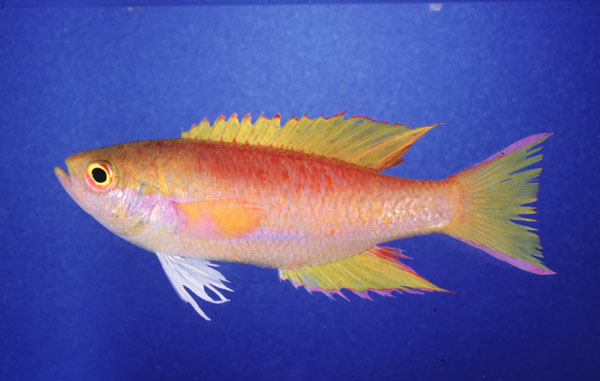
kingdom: Animalia
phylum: Chordata
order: Perciformes
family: Callanthiidae
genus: Callanthias
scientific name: Callanthias legras
